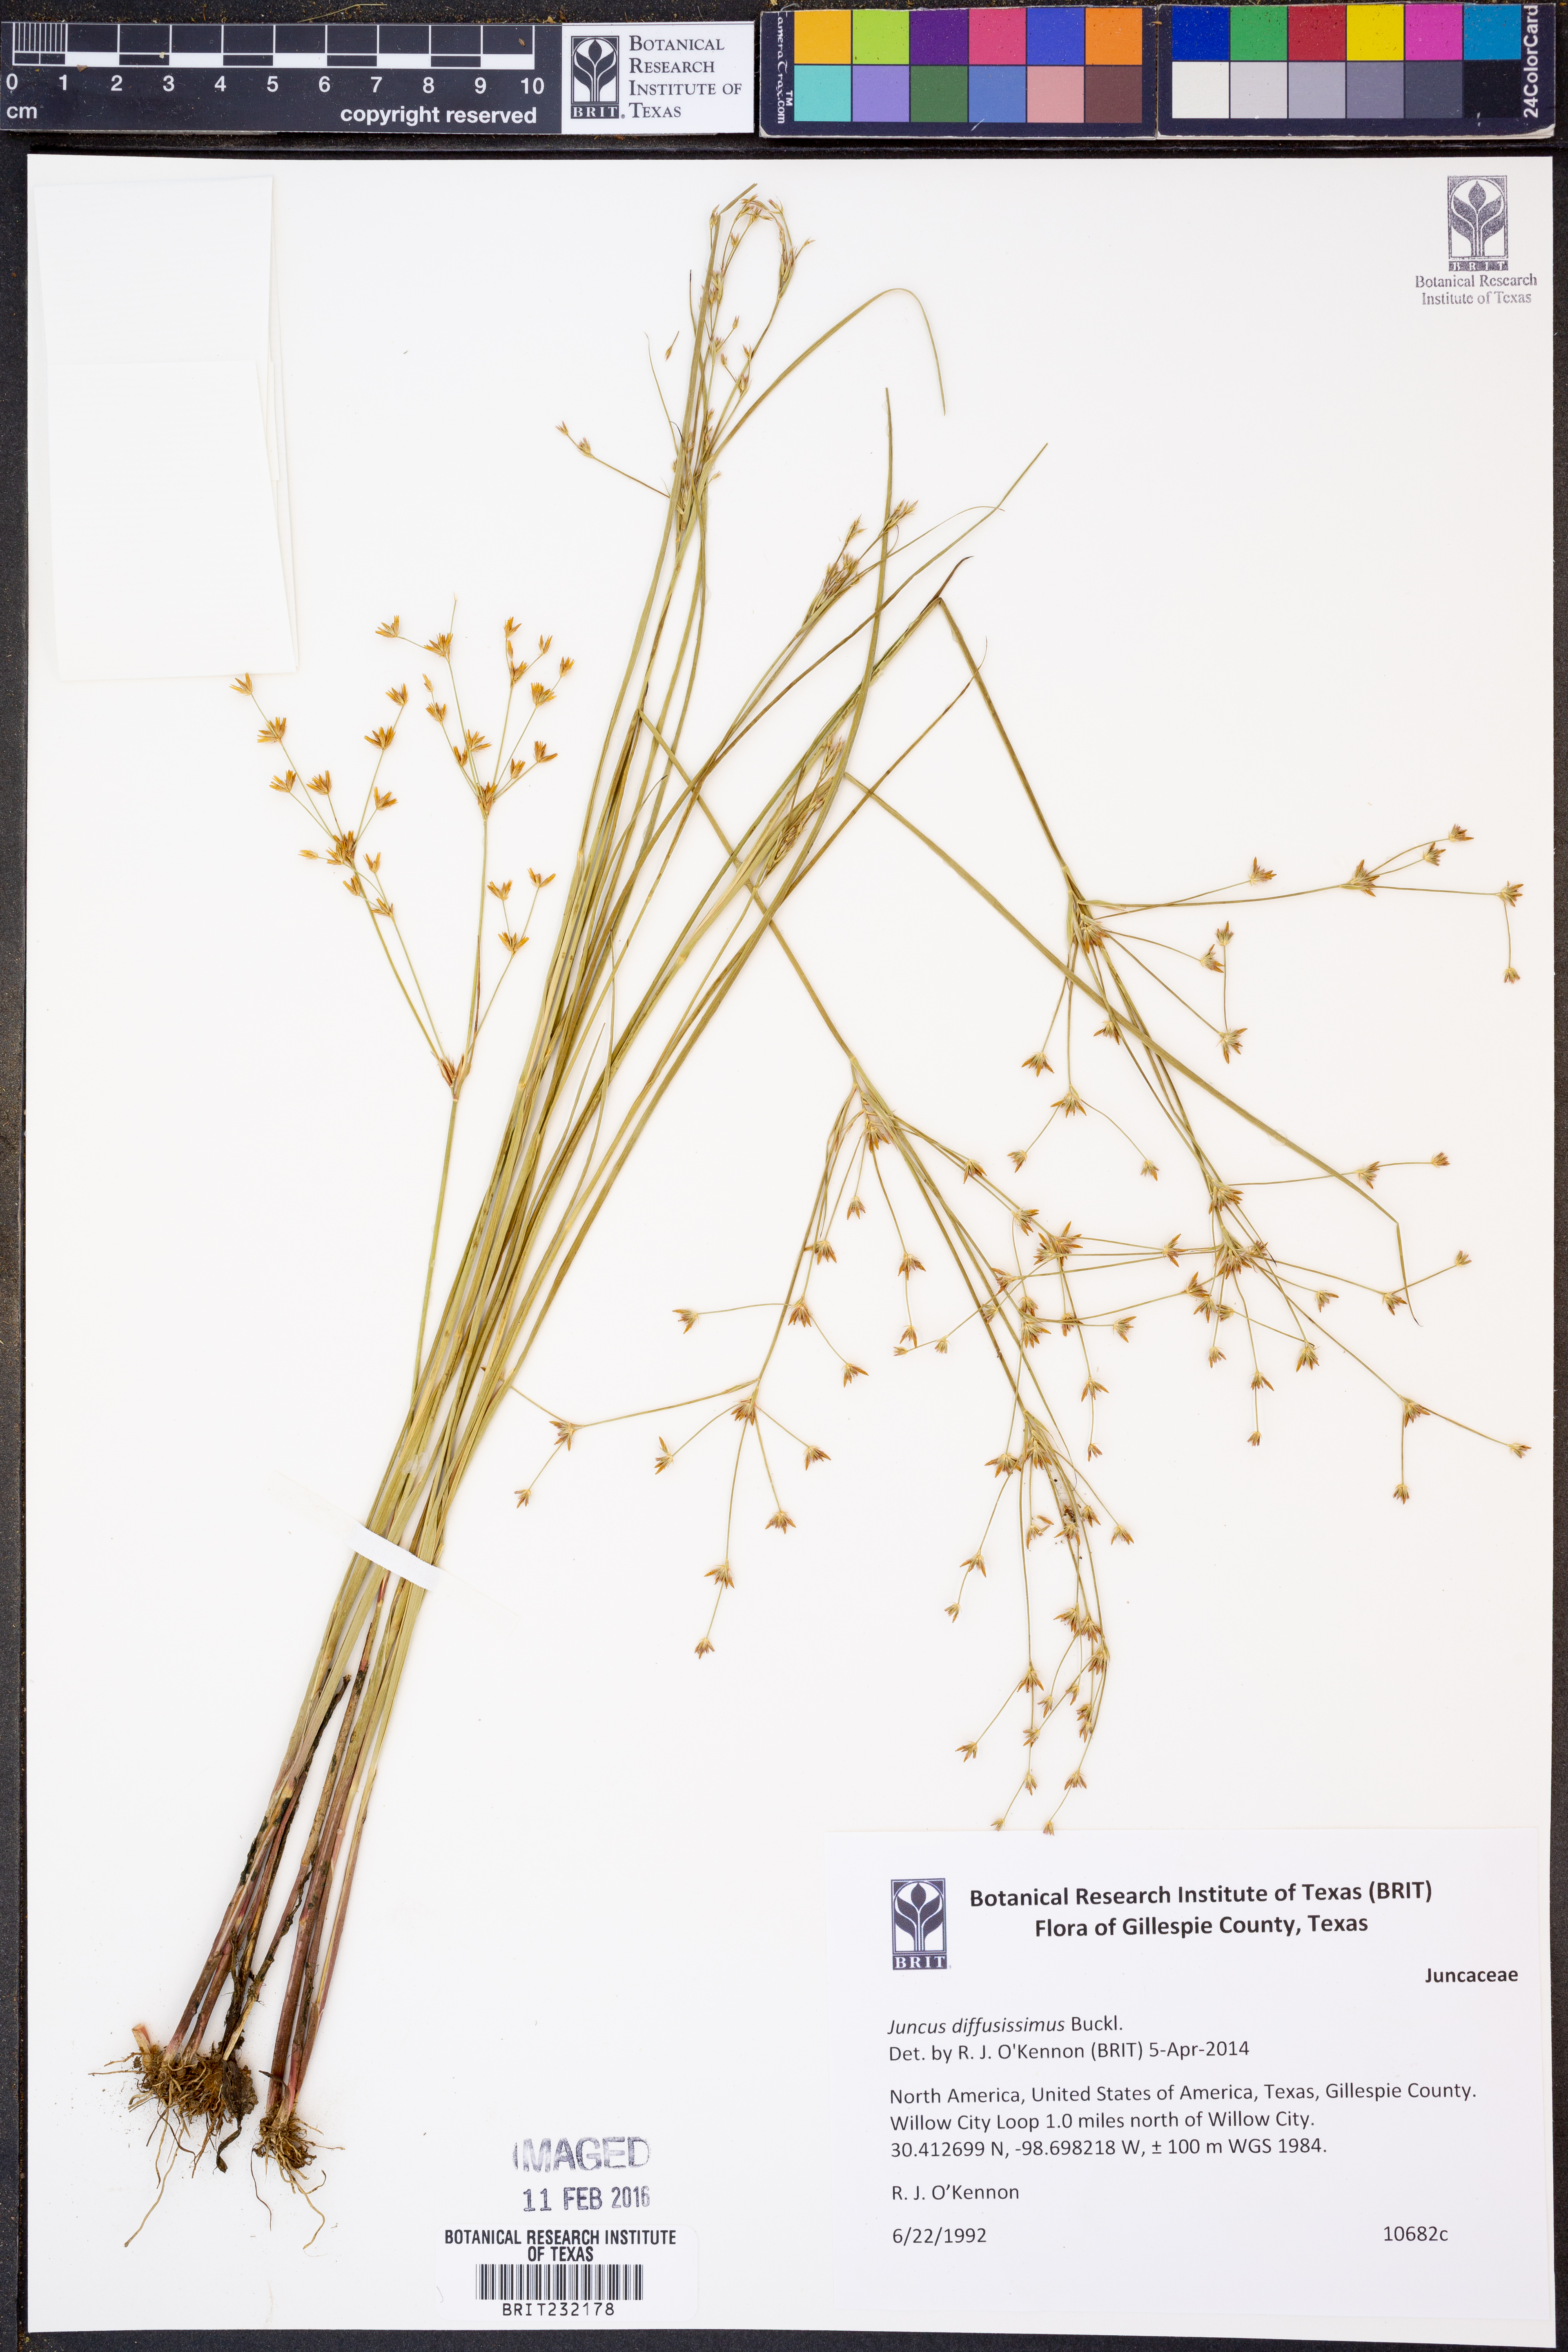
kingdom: Plantae
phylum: Tracheophyta
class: Liliopsida
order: Poales
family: Juncaceae
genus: Juncus
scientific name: Juncus diffusissimus
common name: Slimpod rush
